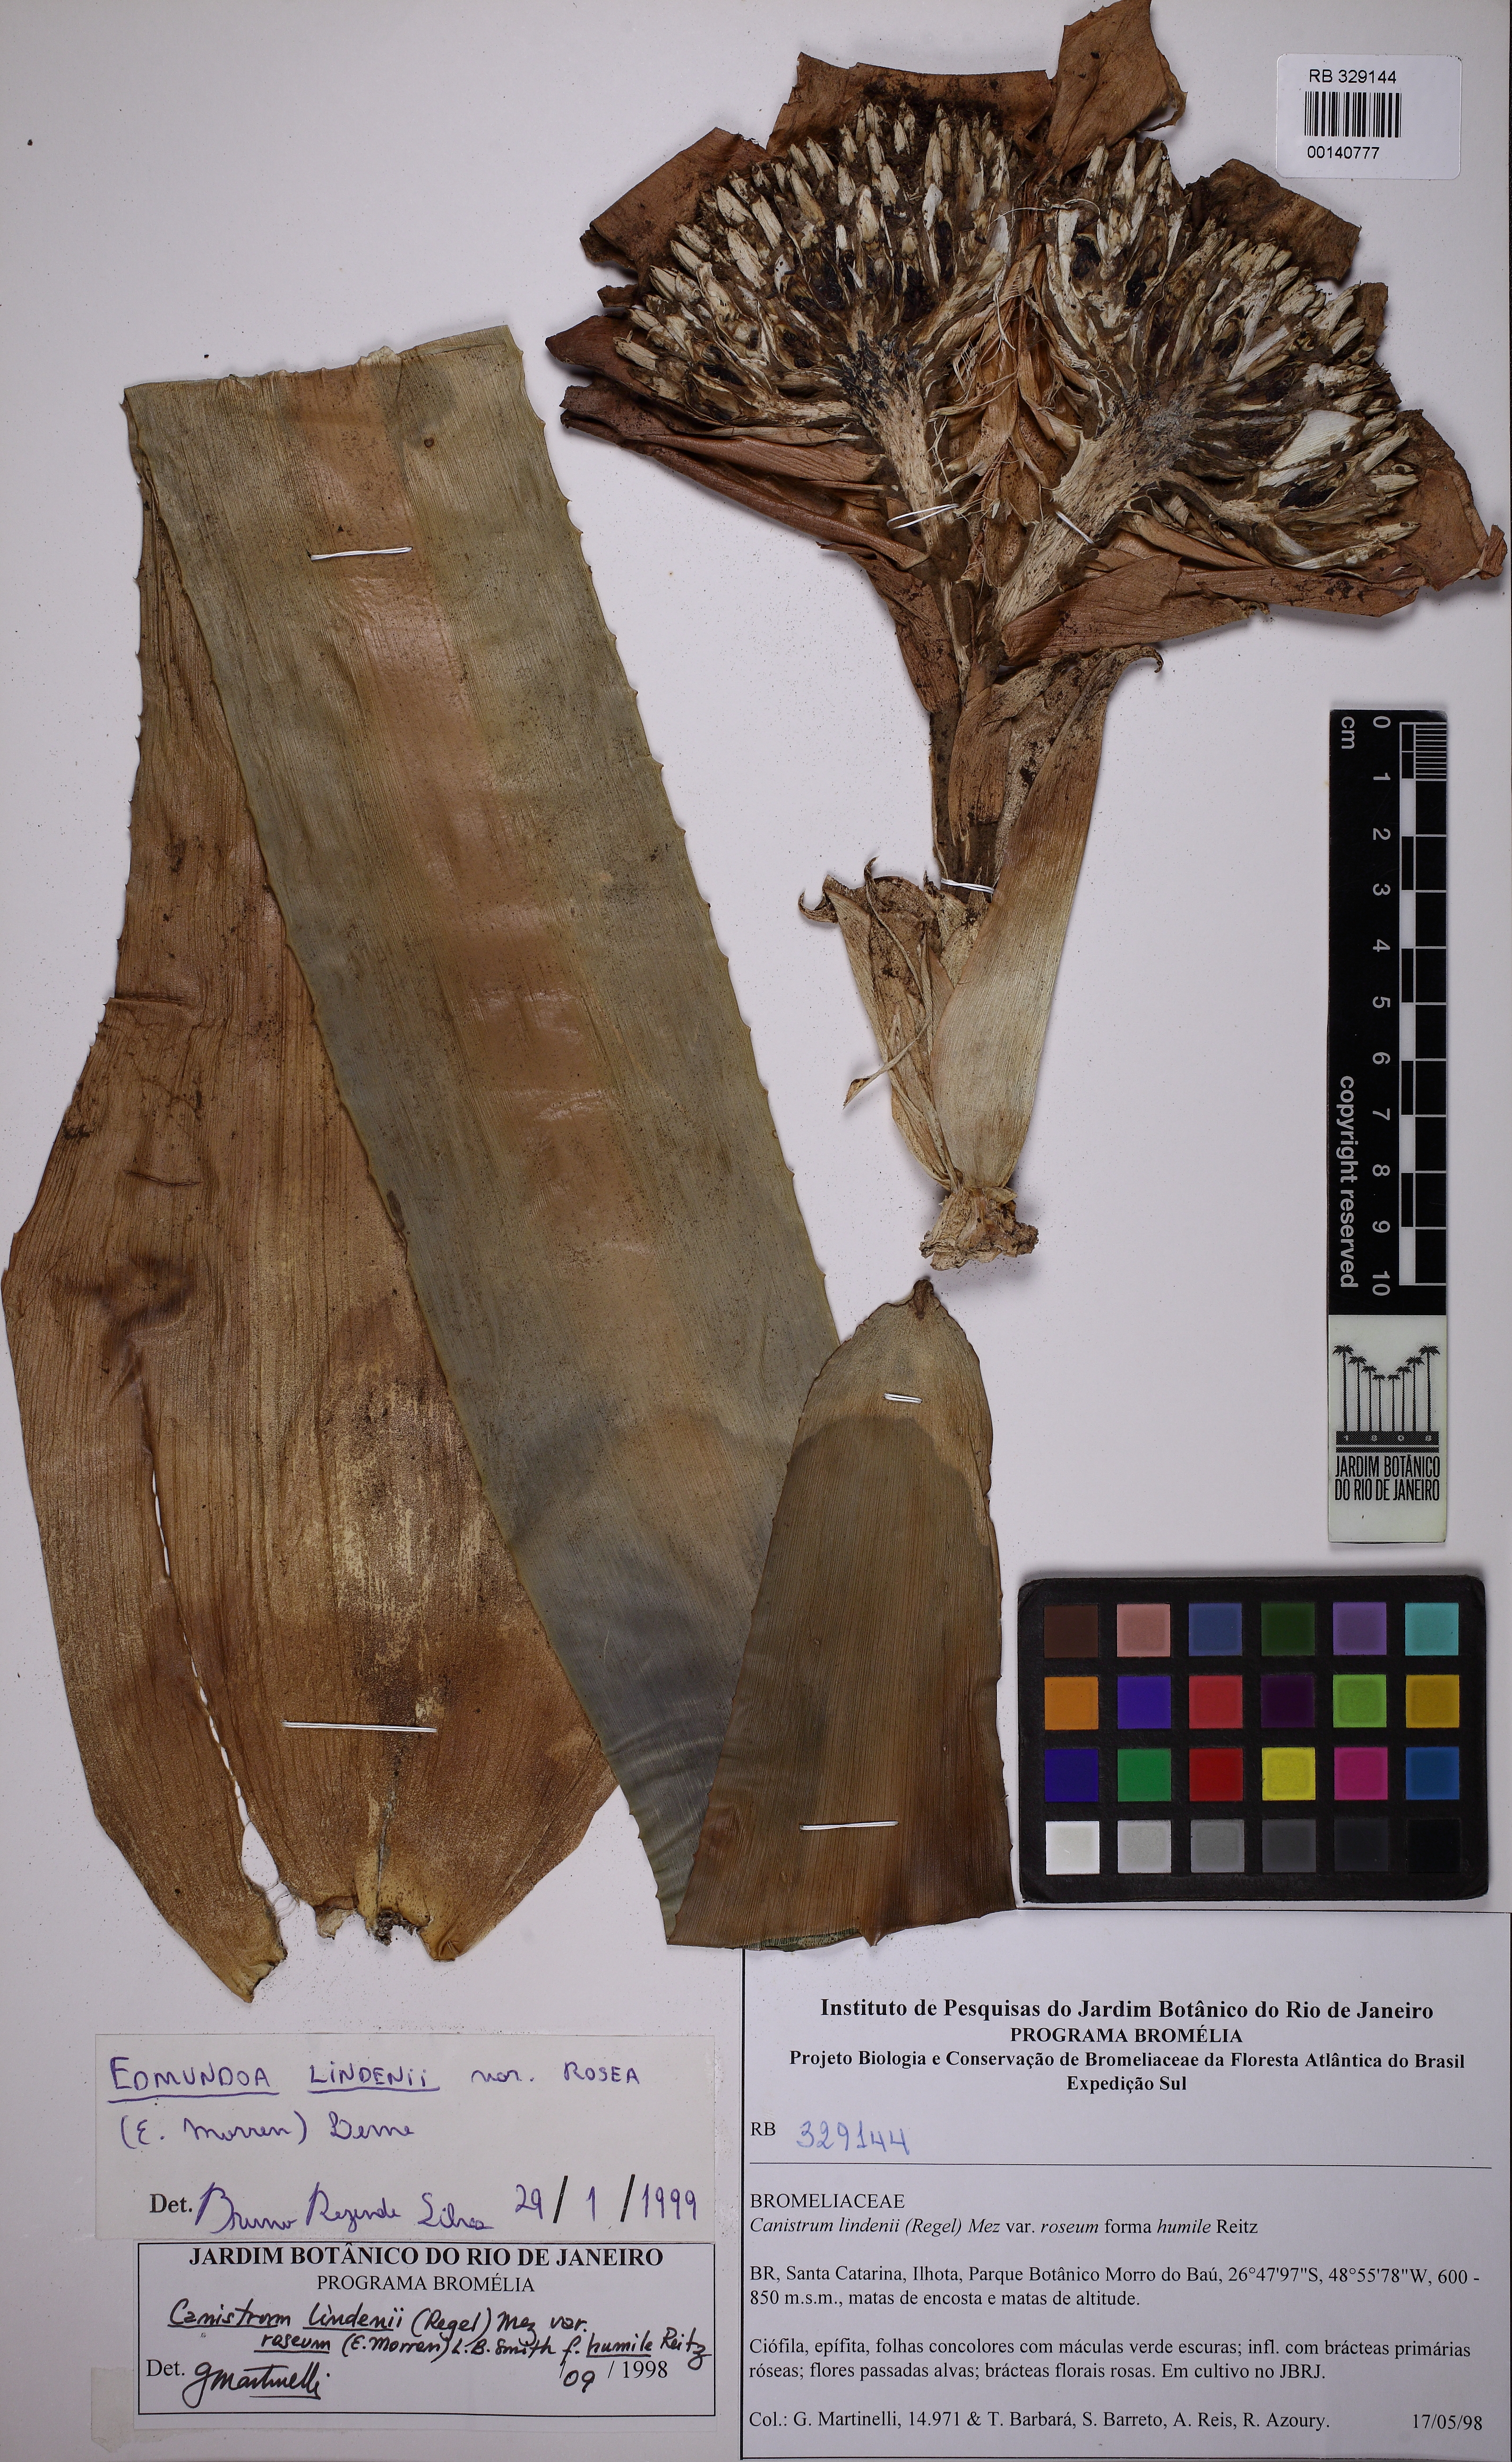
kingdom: Plantae
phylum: Tracheophyta
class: Liliopsida
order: Poales
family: Bromeliaceae
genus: Edmundoa
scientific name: Edmundoa lindenii
